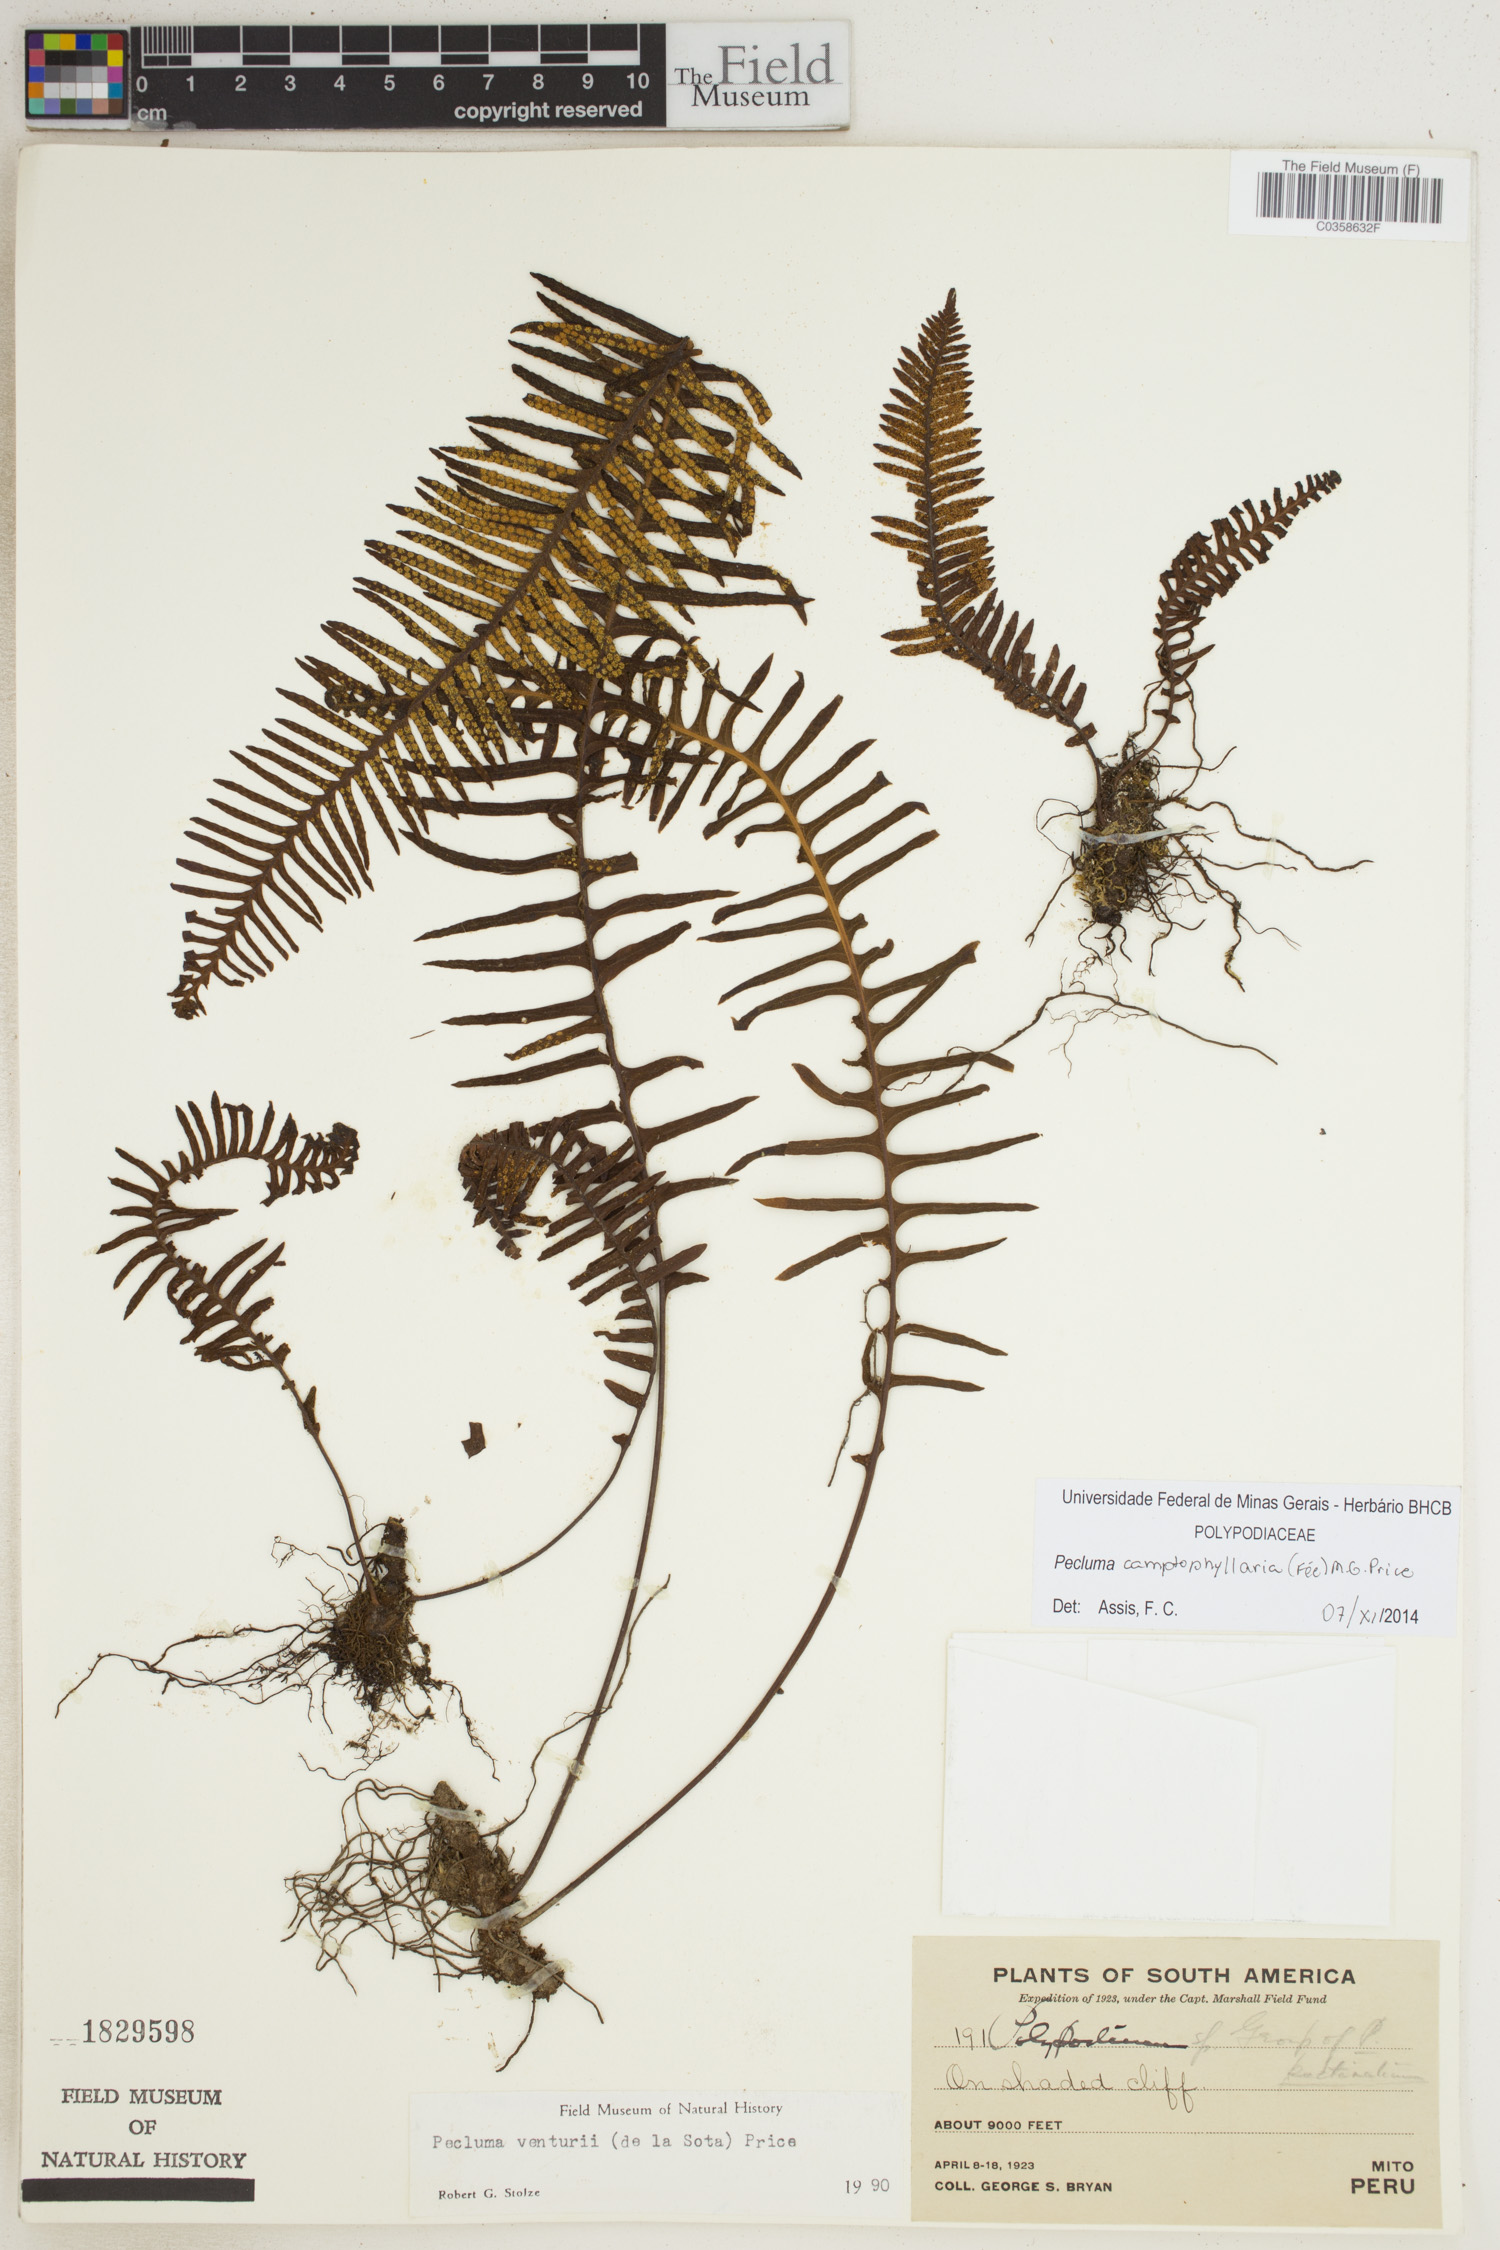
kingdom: Plantae
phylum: Tracheophyta
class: Polypodiopsida
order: Polypodiales
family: Polypodiaceae
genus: Pecluma
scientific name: Pecluma camptophyllaria
